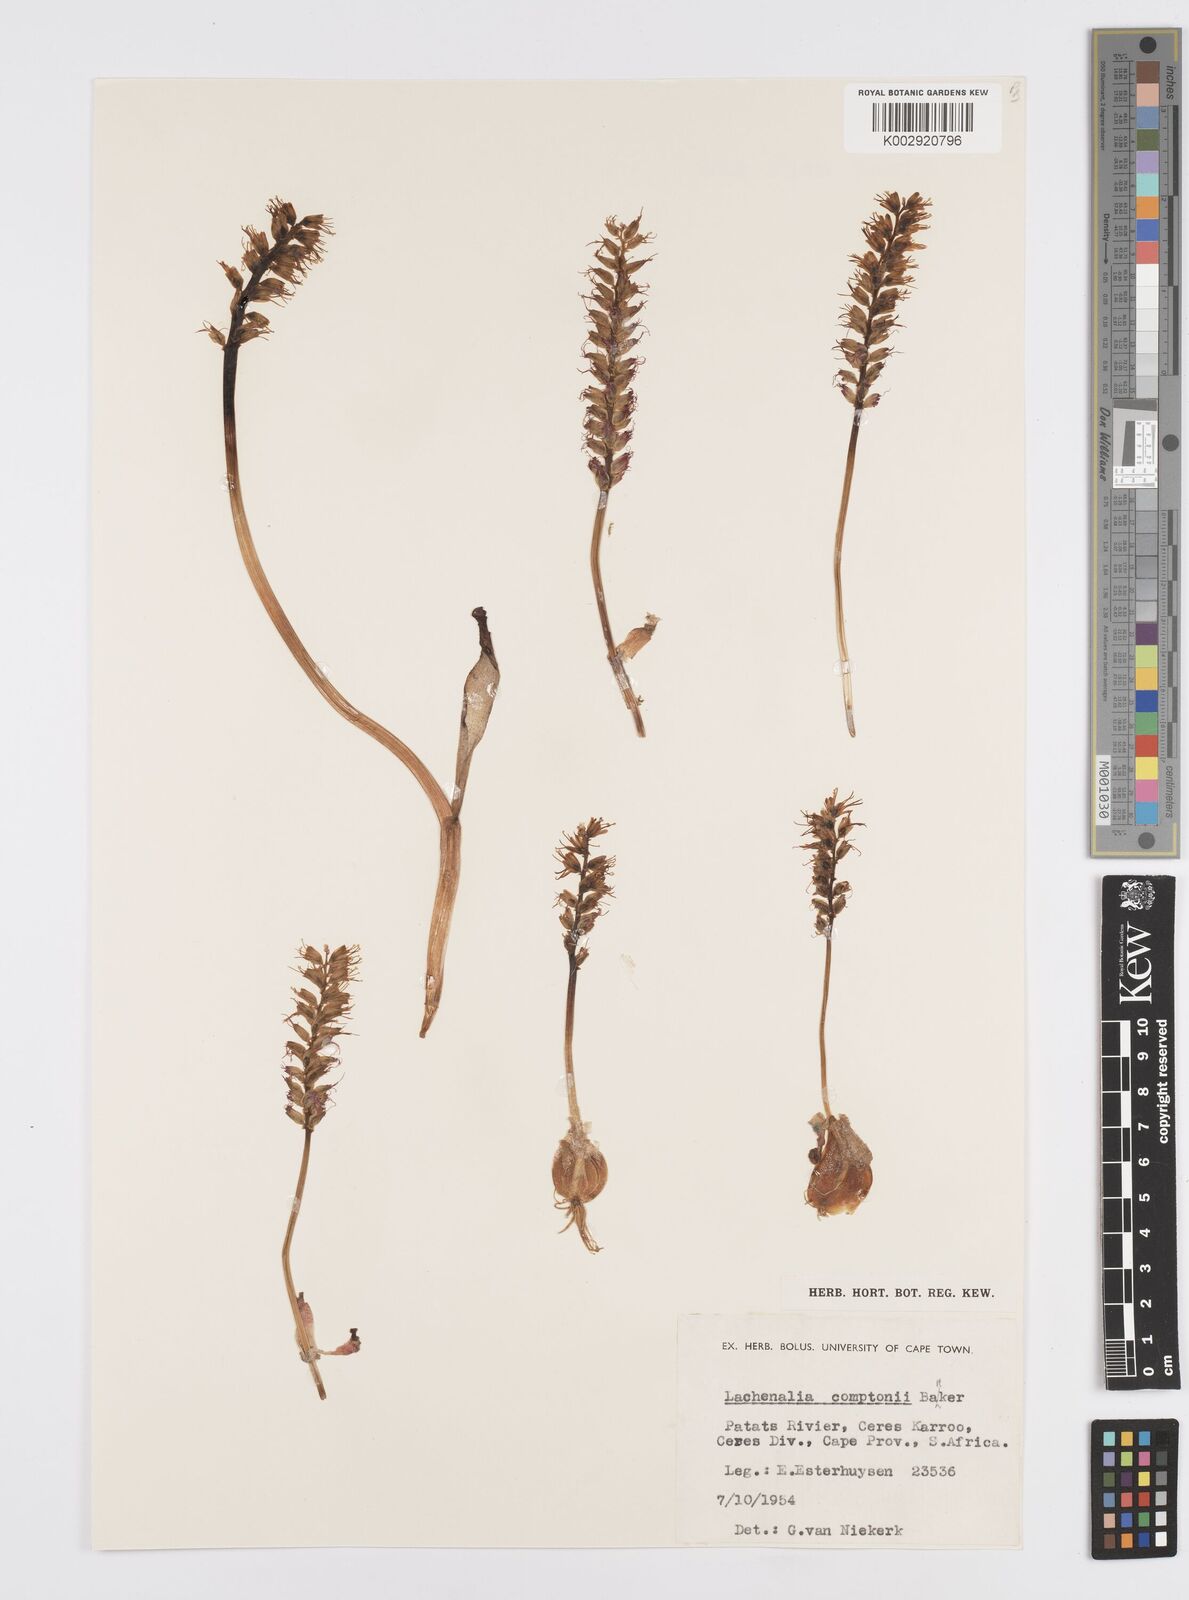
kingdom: Plantae
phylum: Tracheophyta
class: Liliopsida
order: Asparagales
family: Asparagaceae
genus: Lachenalia
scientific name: Lachenalia comptonii
